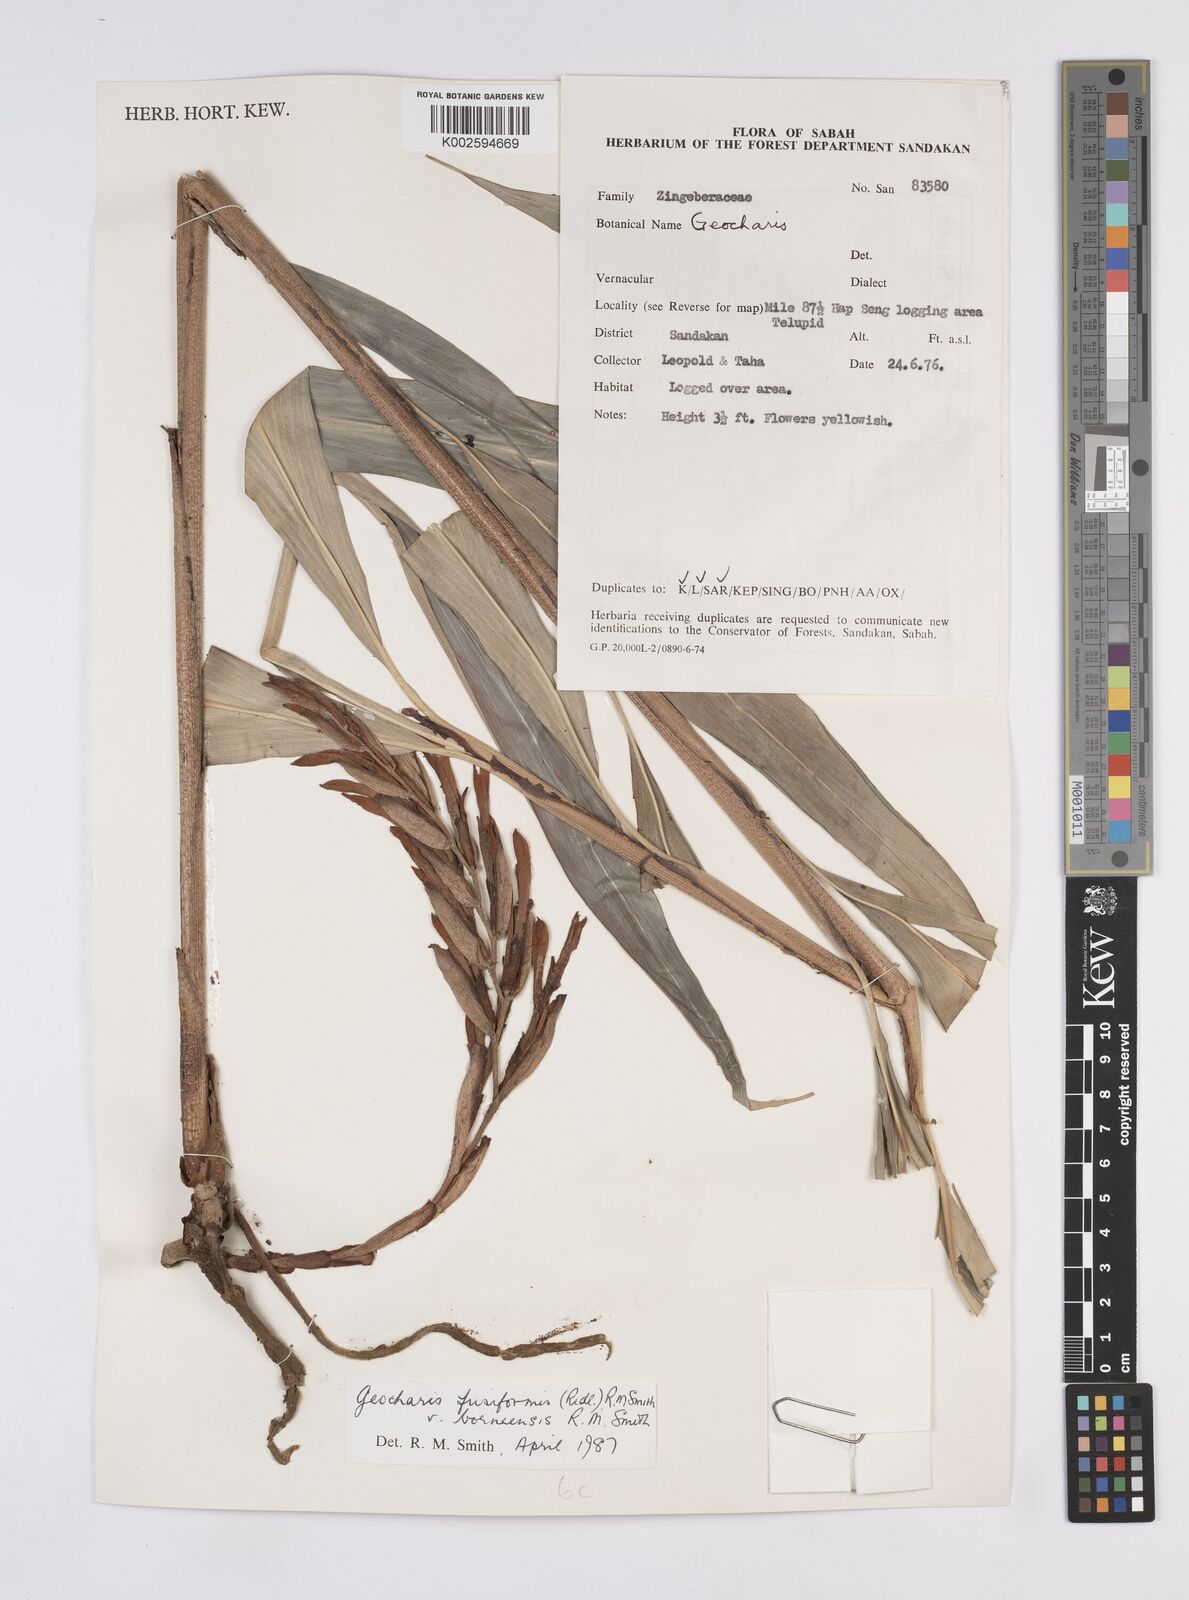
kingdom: Plantae
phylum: Tracheophyta
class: Liliopsida
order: Zingiberales
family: Zingiberaceae
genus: Geocharis
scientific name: Geocharis fusiformis
